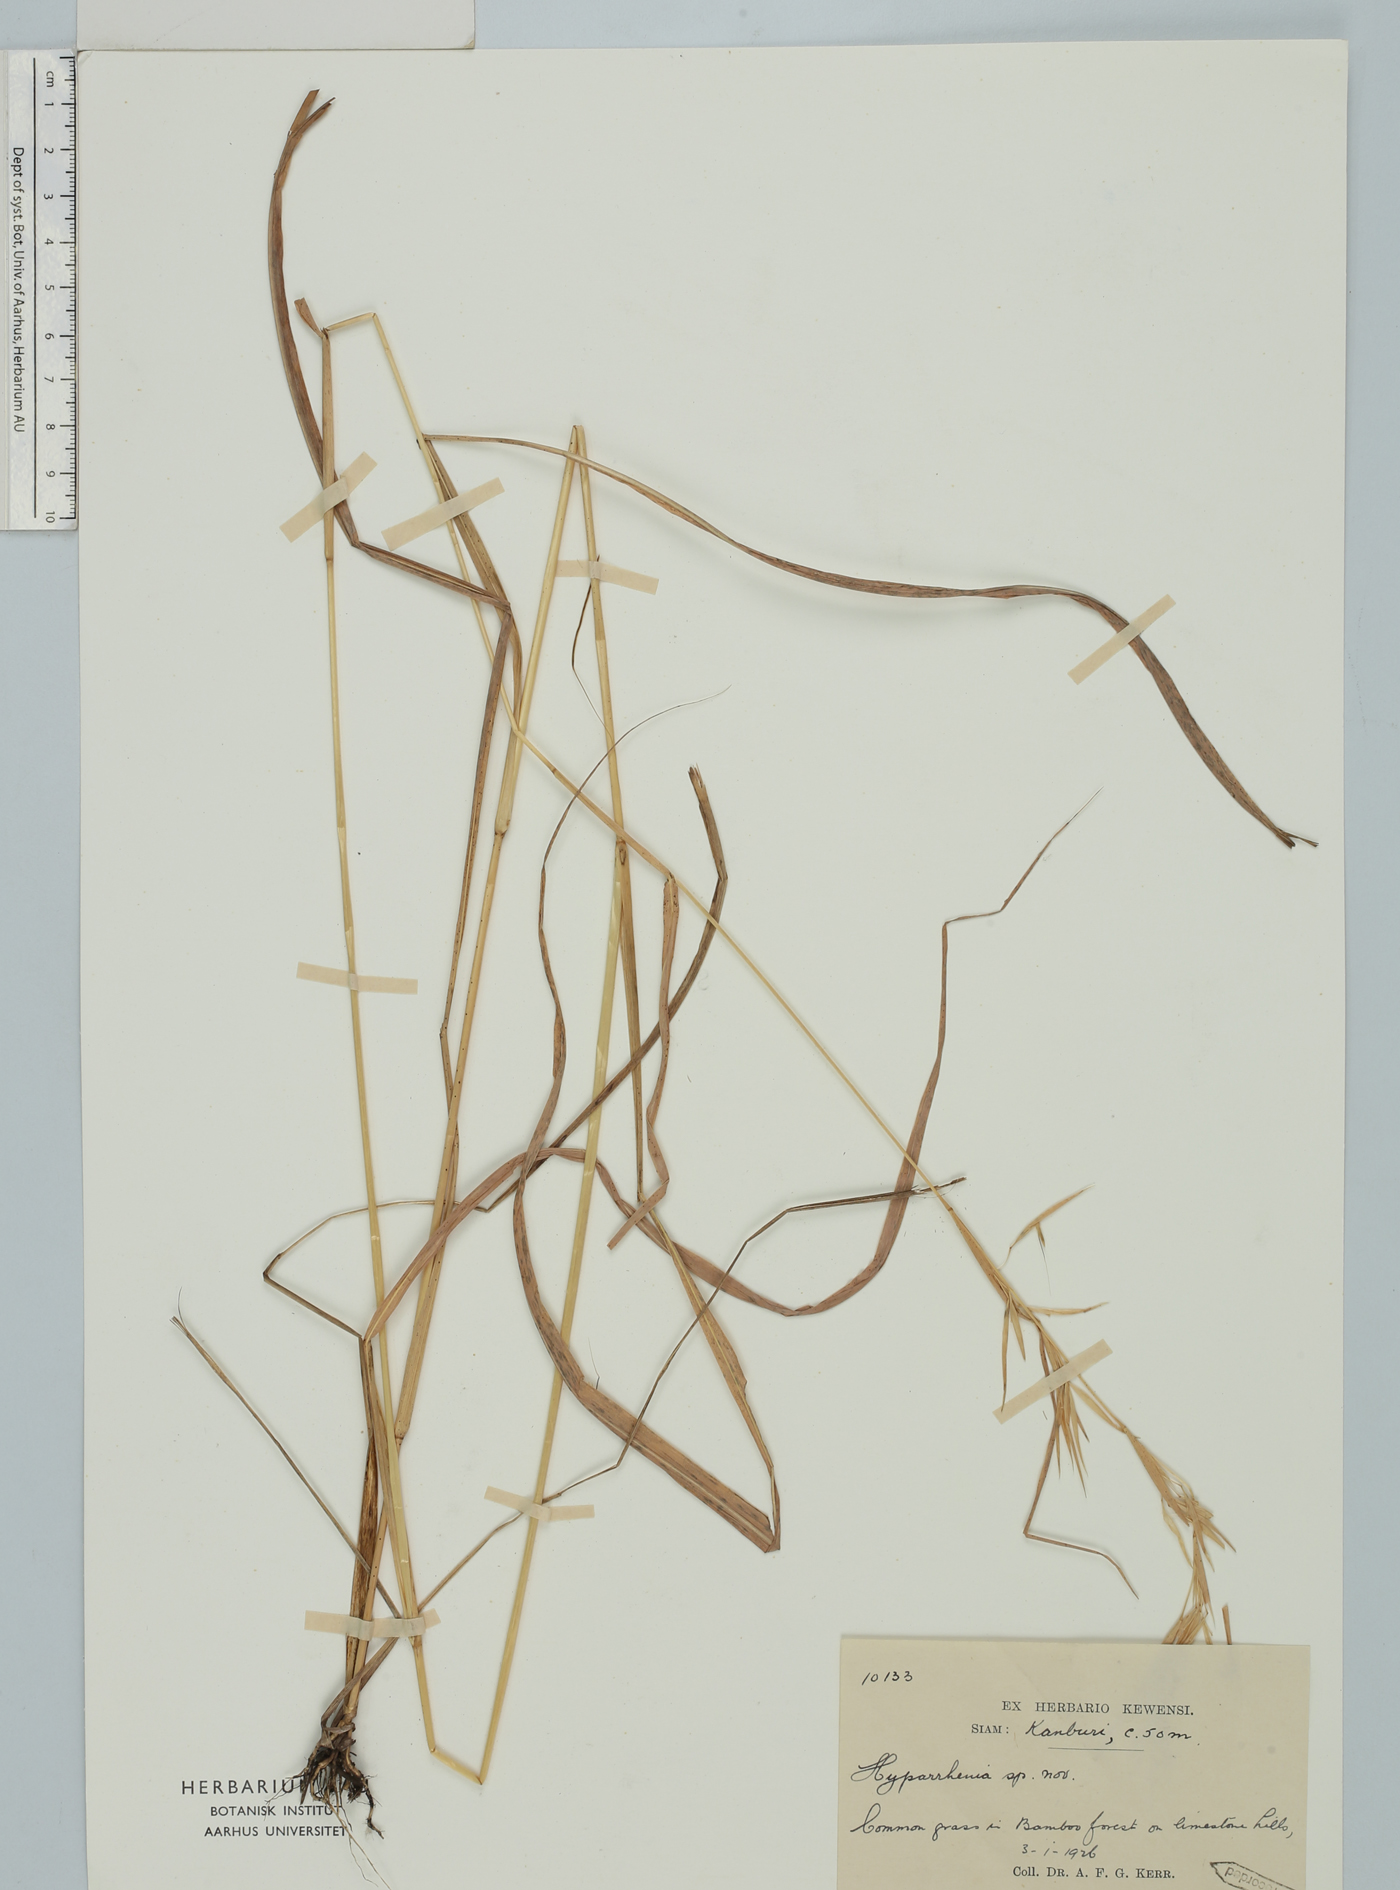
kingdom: Plantae
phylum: Tracheophyta
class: Liliopsida
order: Poales
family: Poaceae
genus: Hyparrhenia
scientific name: Hyparrhenia
